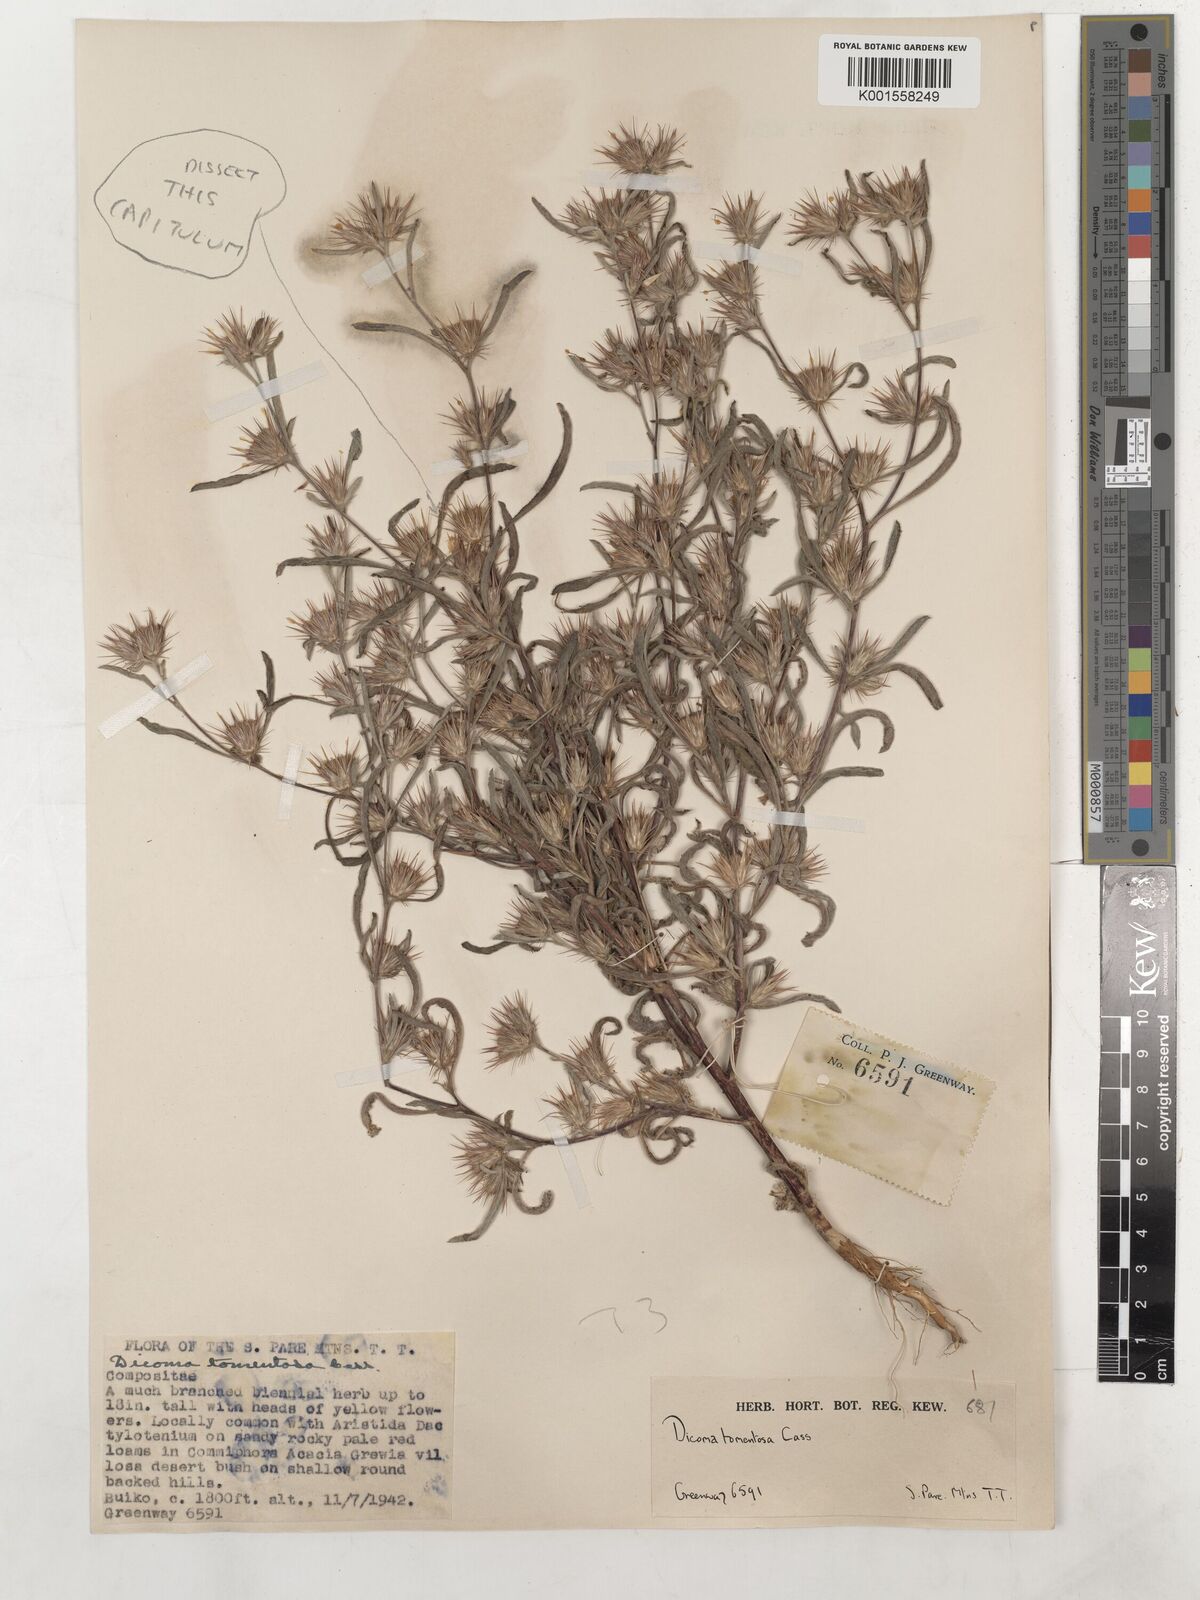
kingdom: Plantae
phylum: Tracheophyta
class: Magnoliopsida
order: Asterales
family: Asteraceae
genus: Dicoma
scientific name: Dicoma tomentosa
